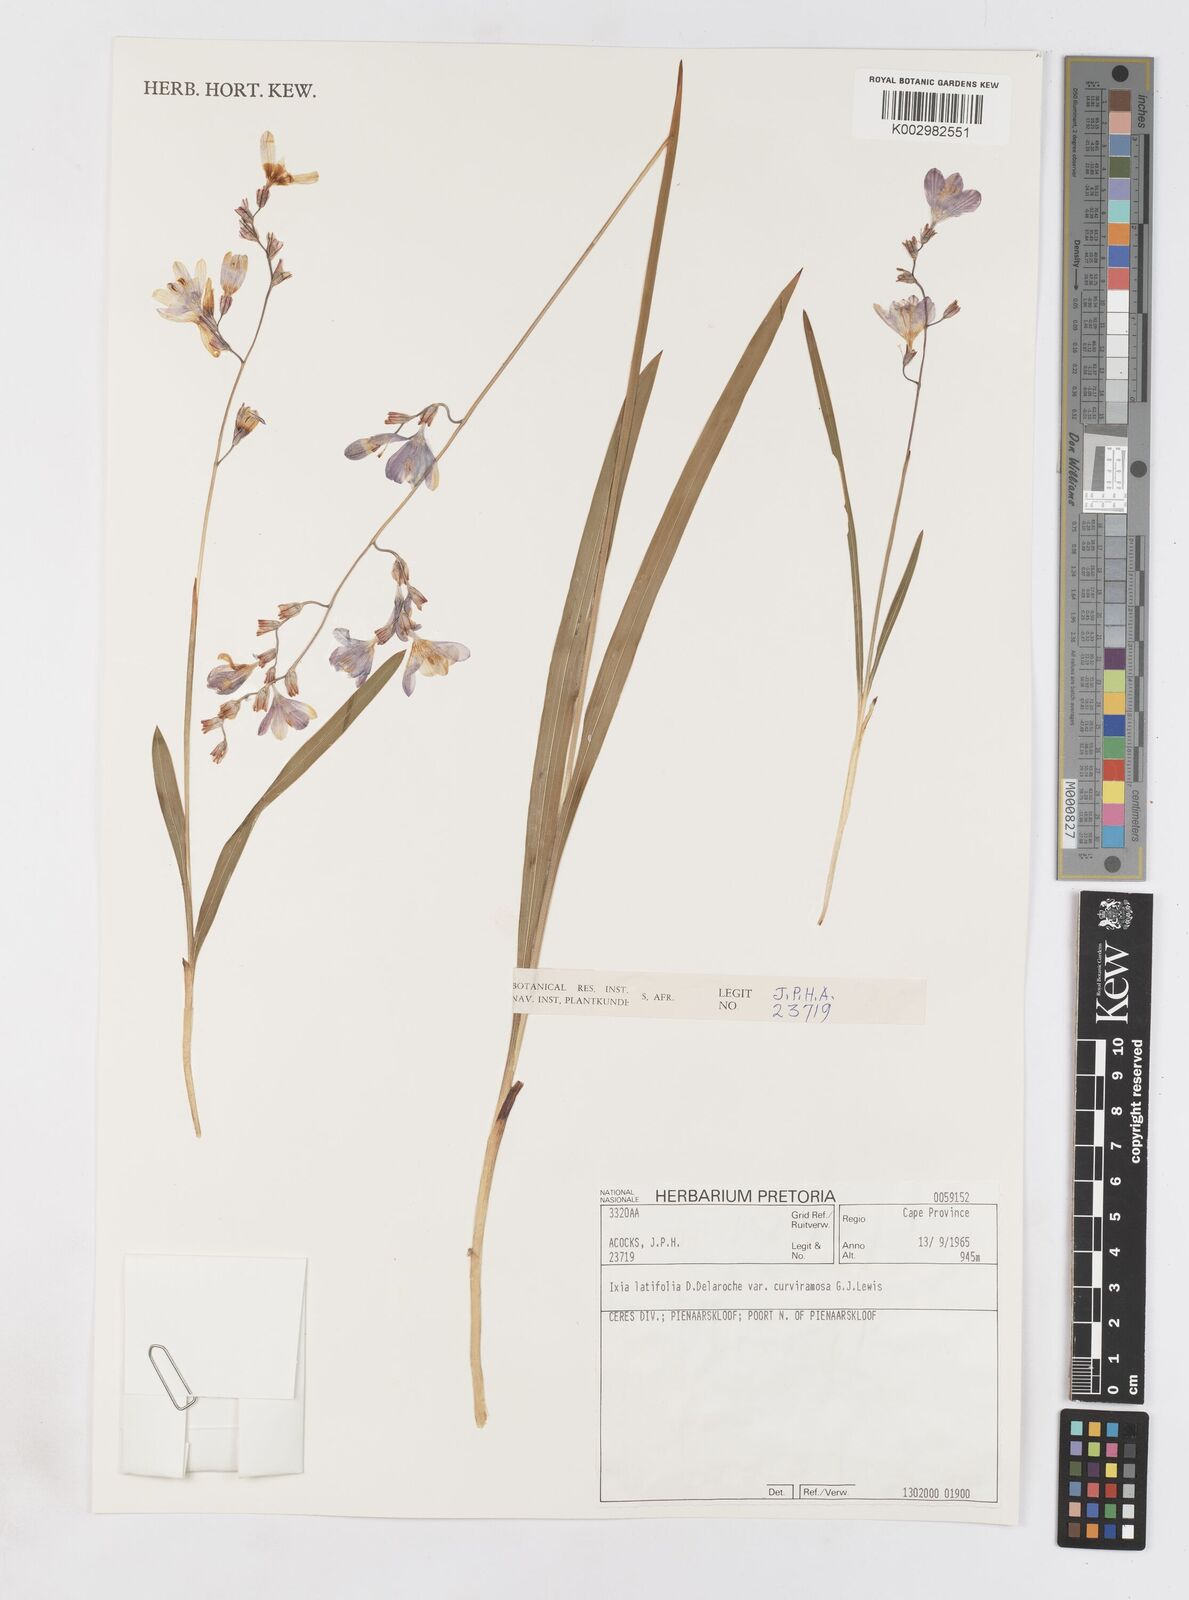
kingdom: Plantae
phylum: Tracheophyta
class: Liliopsida
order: Asparagales
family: Iridaceae
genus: Ixia
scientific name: Ixia latifolia
